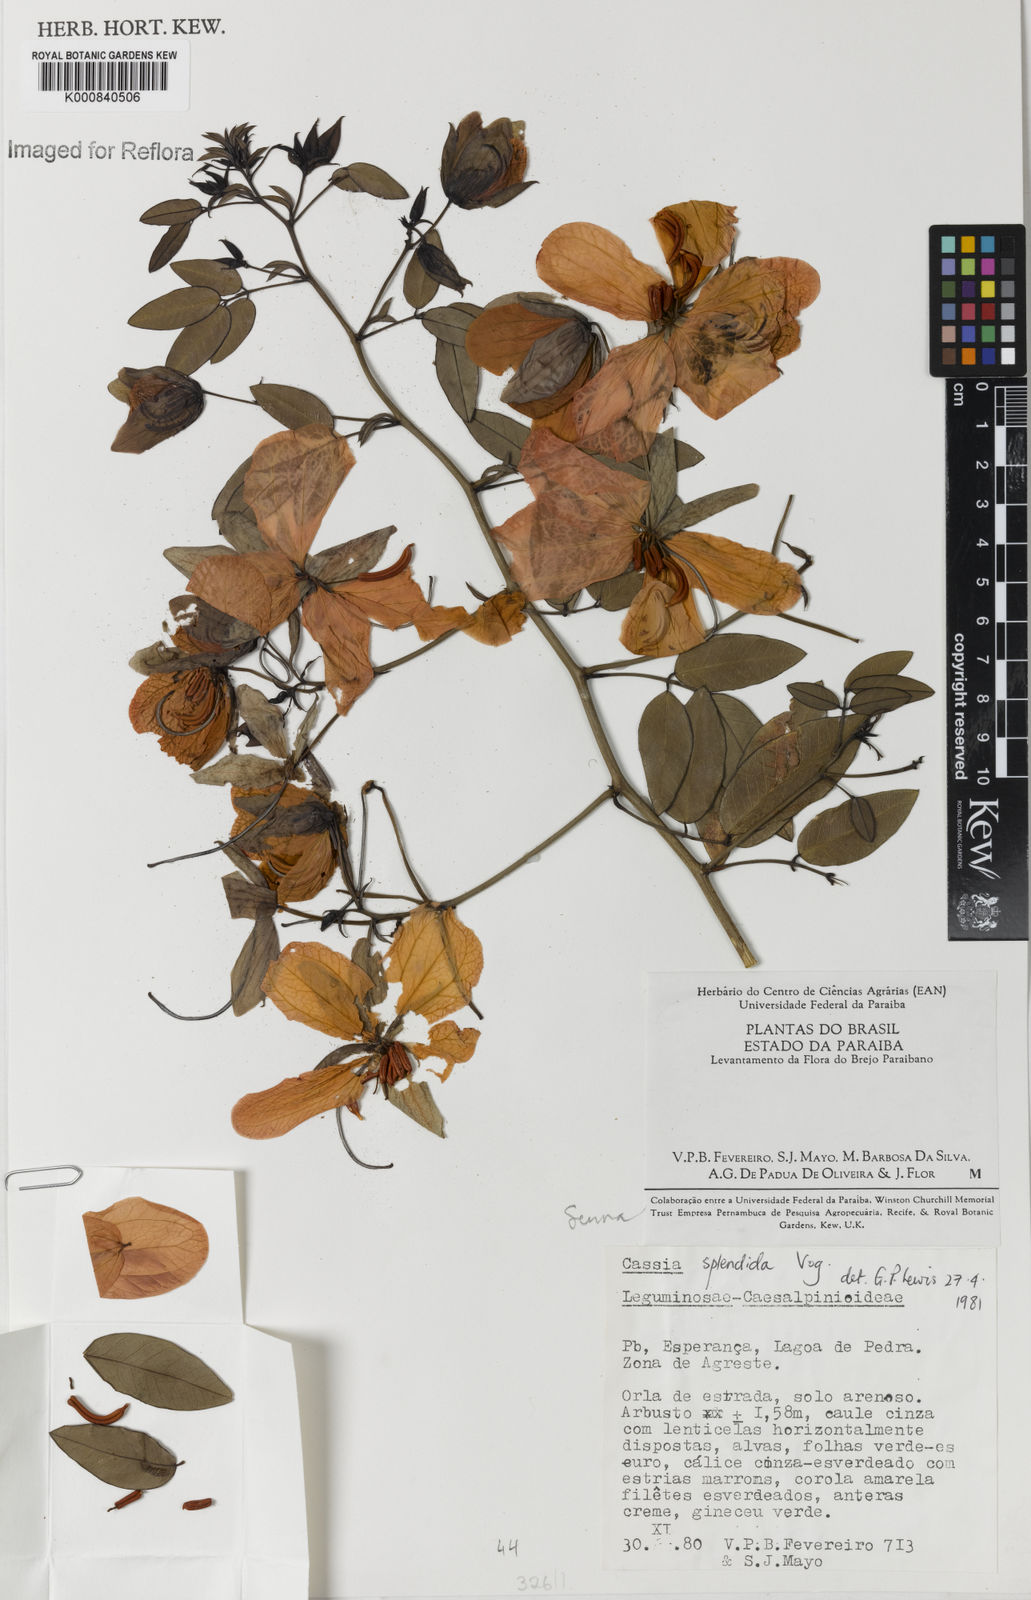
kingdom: Plantae
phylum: Tracheophyta
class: Magnoliopsida
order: Fabales
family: Fabaceae
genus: Senna
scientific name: Senna splendida
